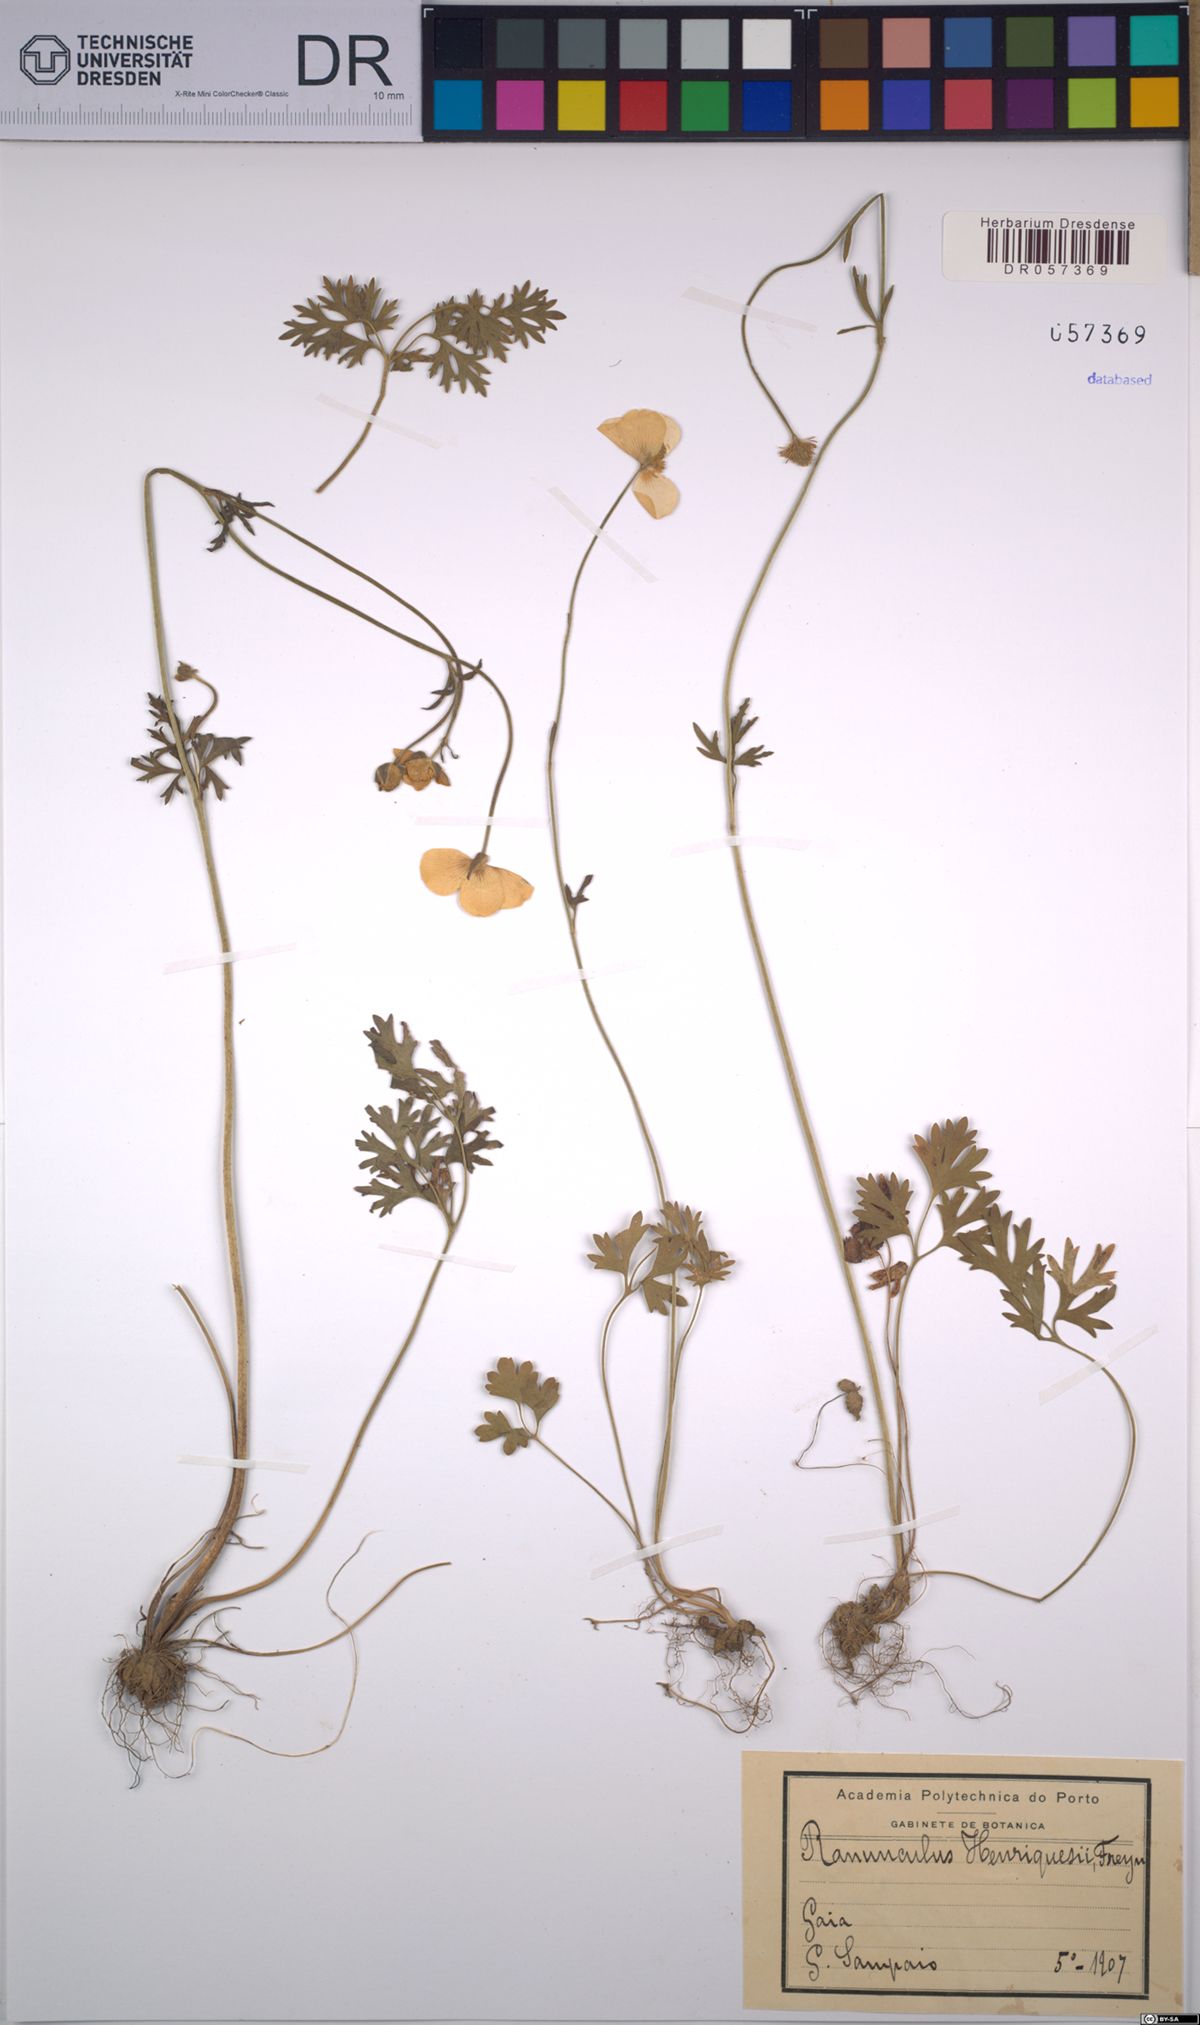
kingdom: Plantae
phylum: Tracheophyta
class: Magnoliopsida
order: Ranunculales
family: Ranunculaceae
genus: Ranunculus
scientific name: Ranunculus gregarius
